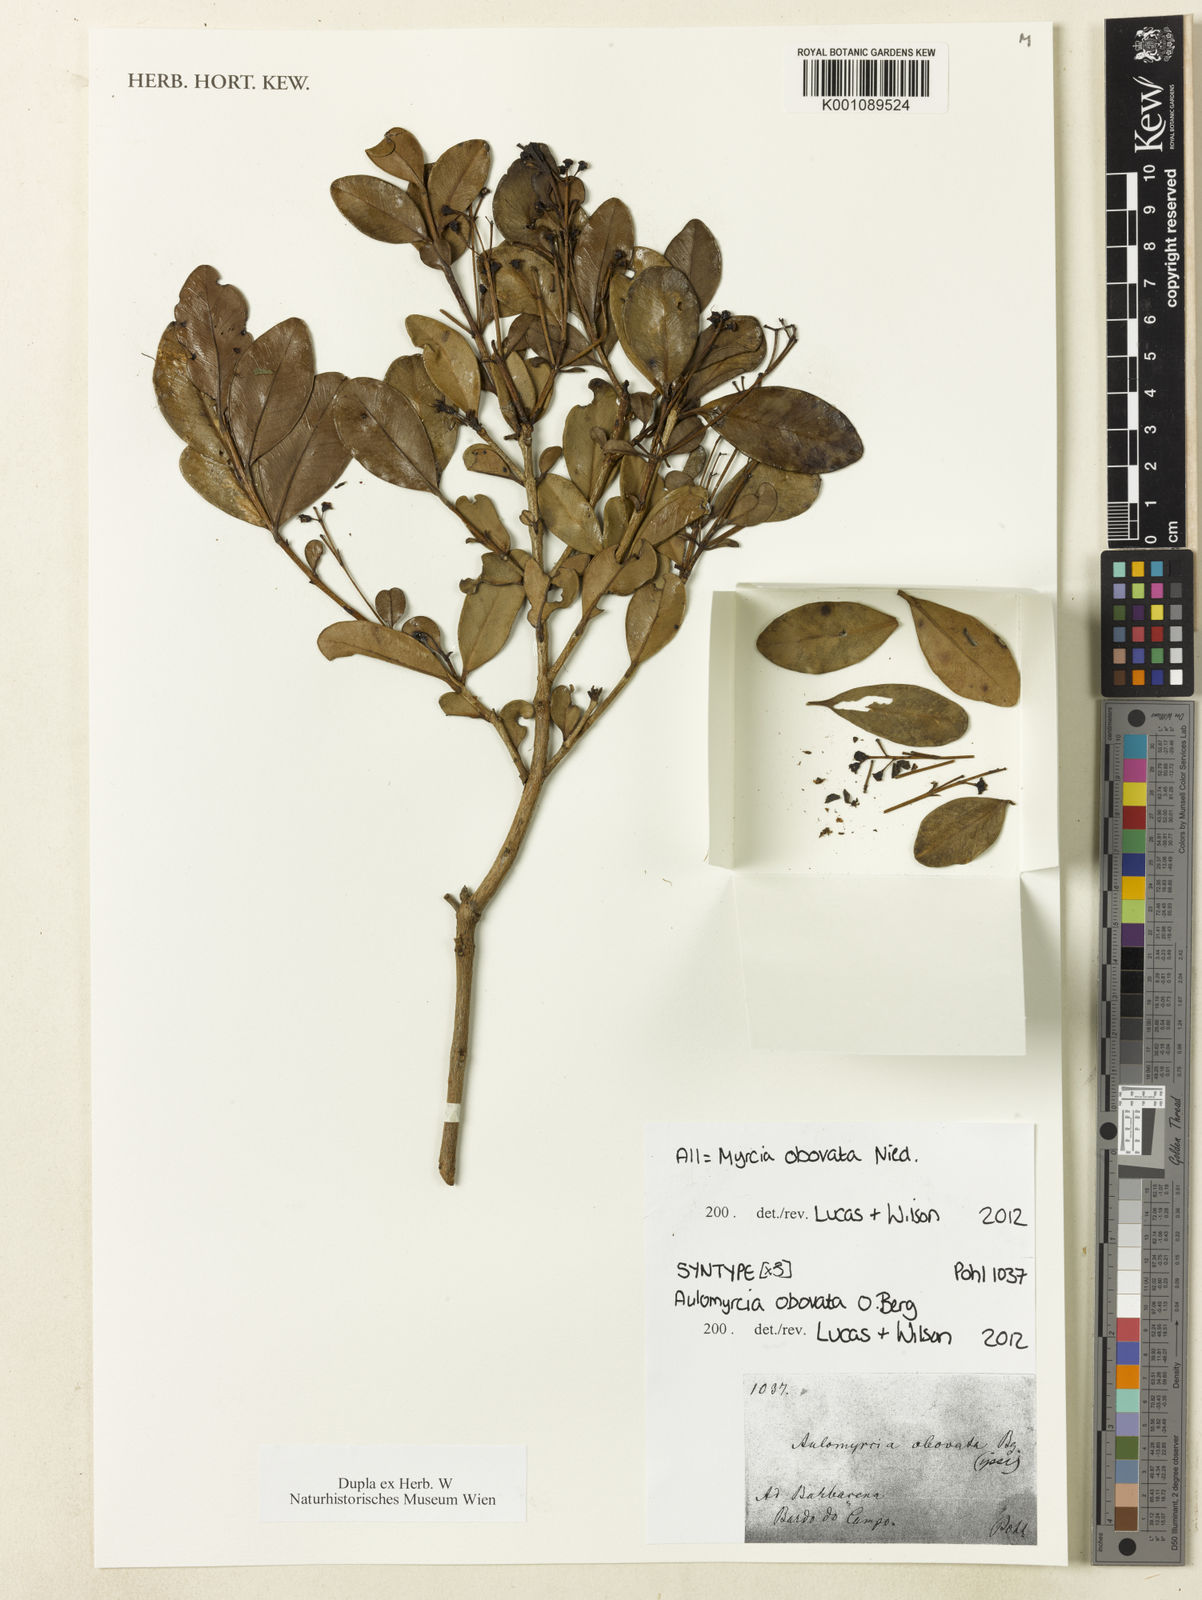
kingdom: Plantae
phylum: Tracheophyta
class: Magnoliopsida
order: Myrtales
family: Myrtaceae
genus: Myrcia
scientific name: Myrcia obovata
